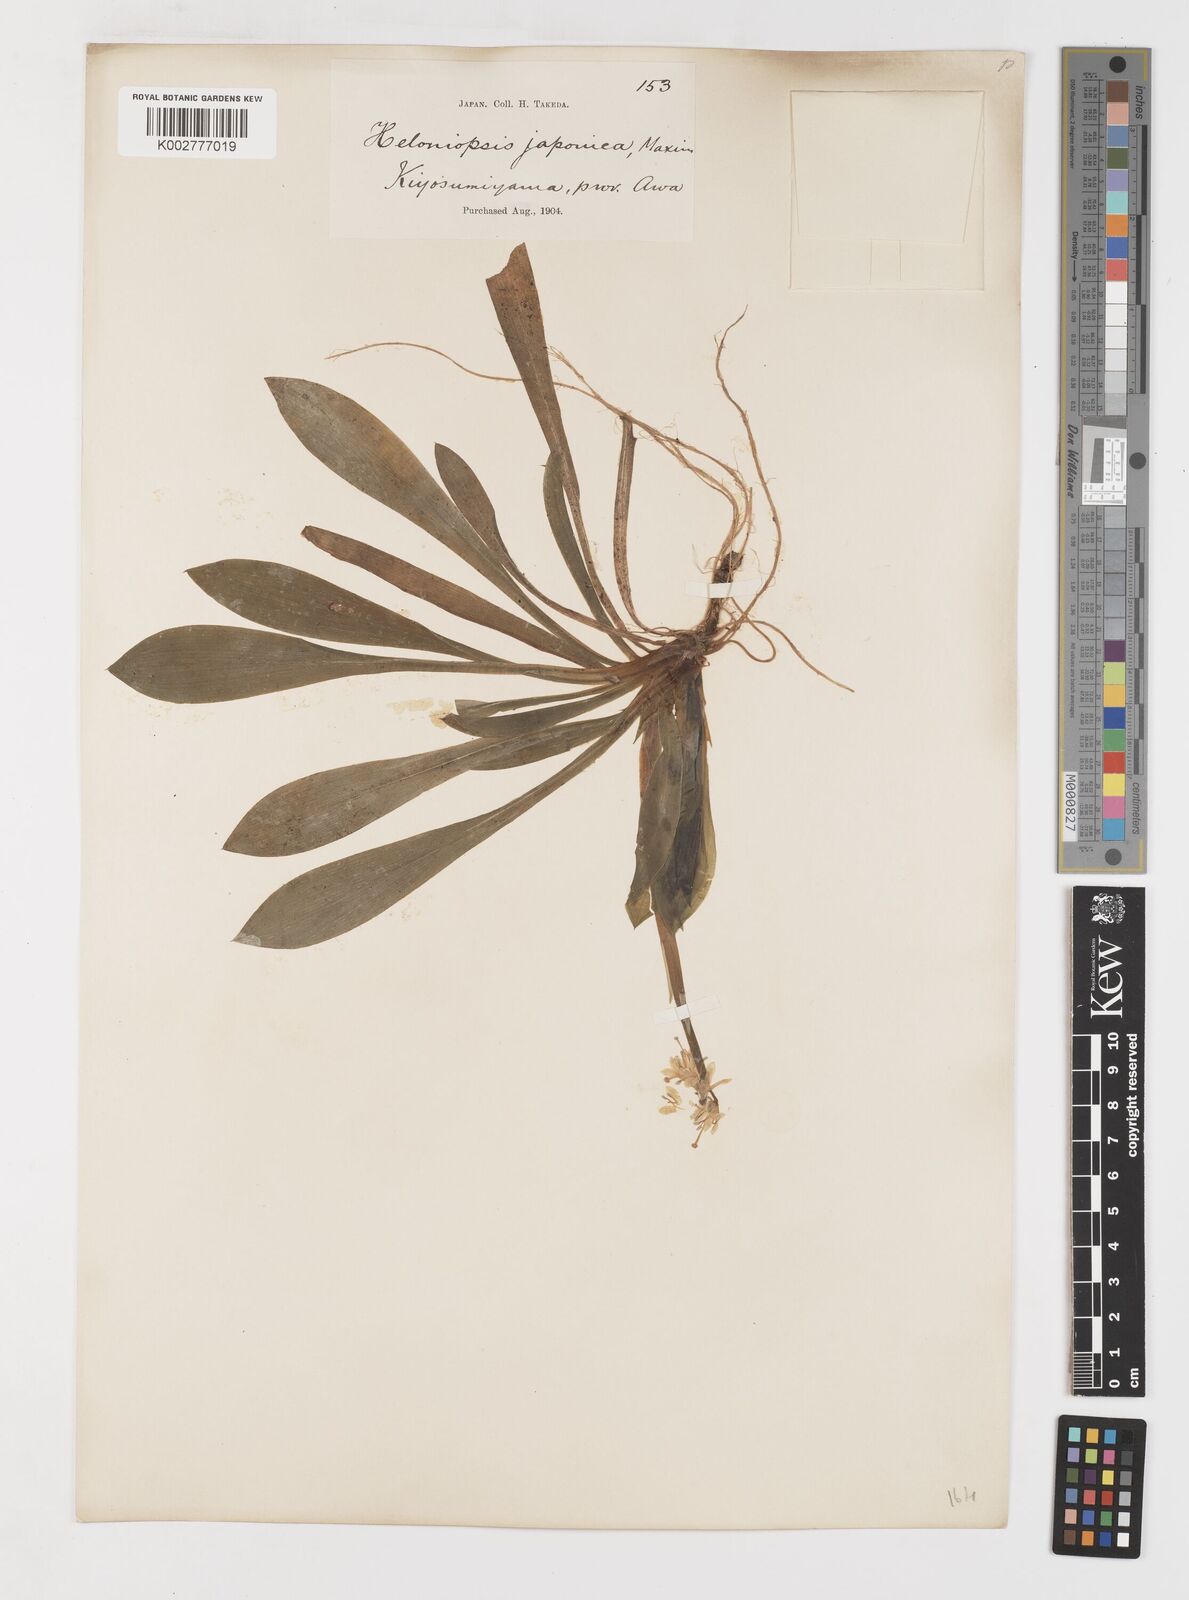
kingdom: Plantae
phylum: Tracheophyta
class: Liliopsida
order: Liliales
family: Melanthiaceae
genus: Helonias
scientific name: Helonias orientalis
